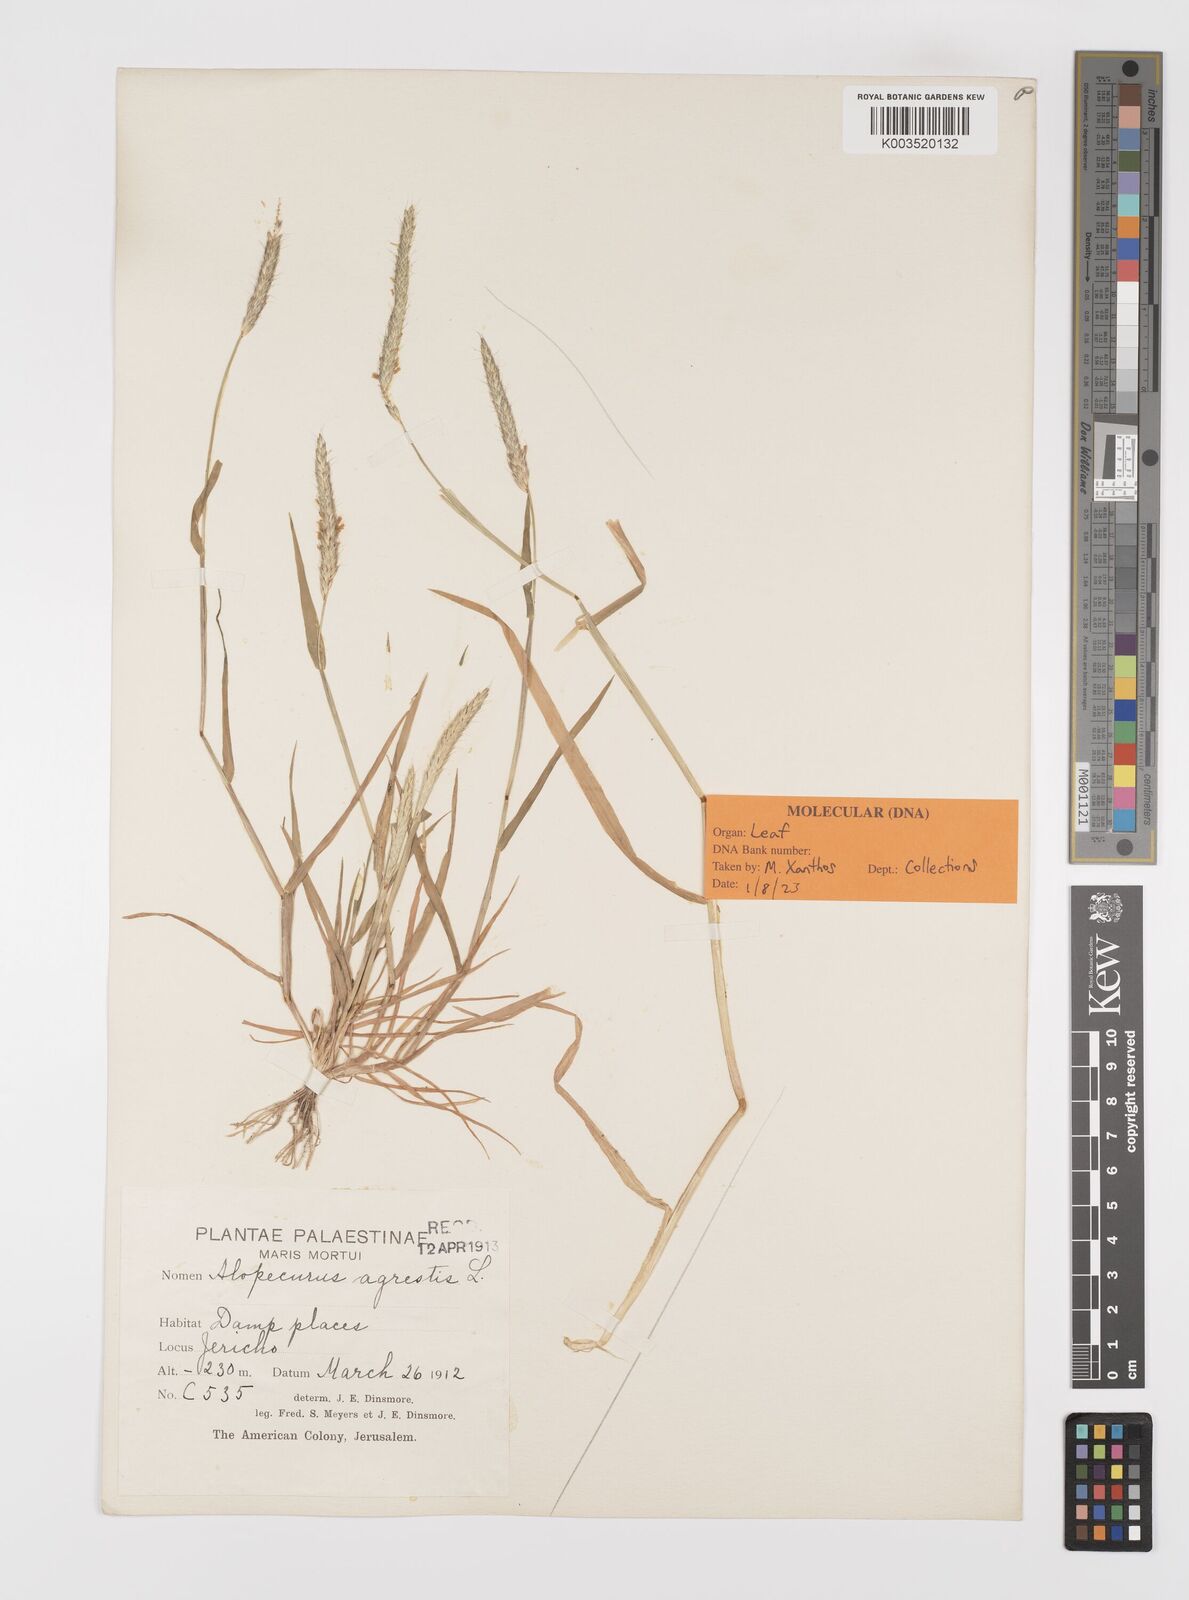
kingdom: Plantae
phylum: Tracheophyta
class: Liliopsida
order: Poales
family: Poaceae
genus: Alopecurus
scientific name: Alopecurus myosuroides
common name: Black-grass
